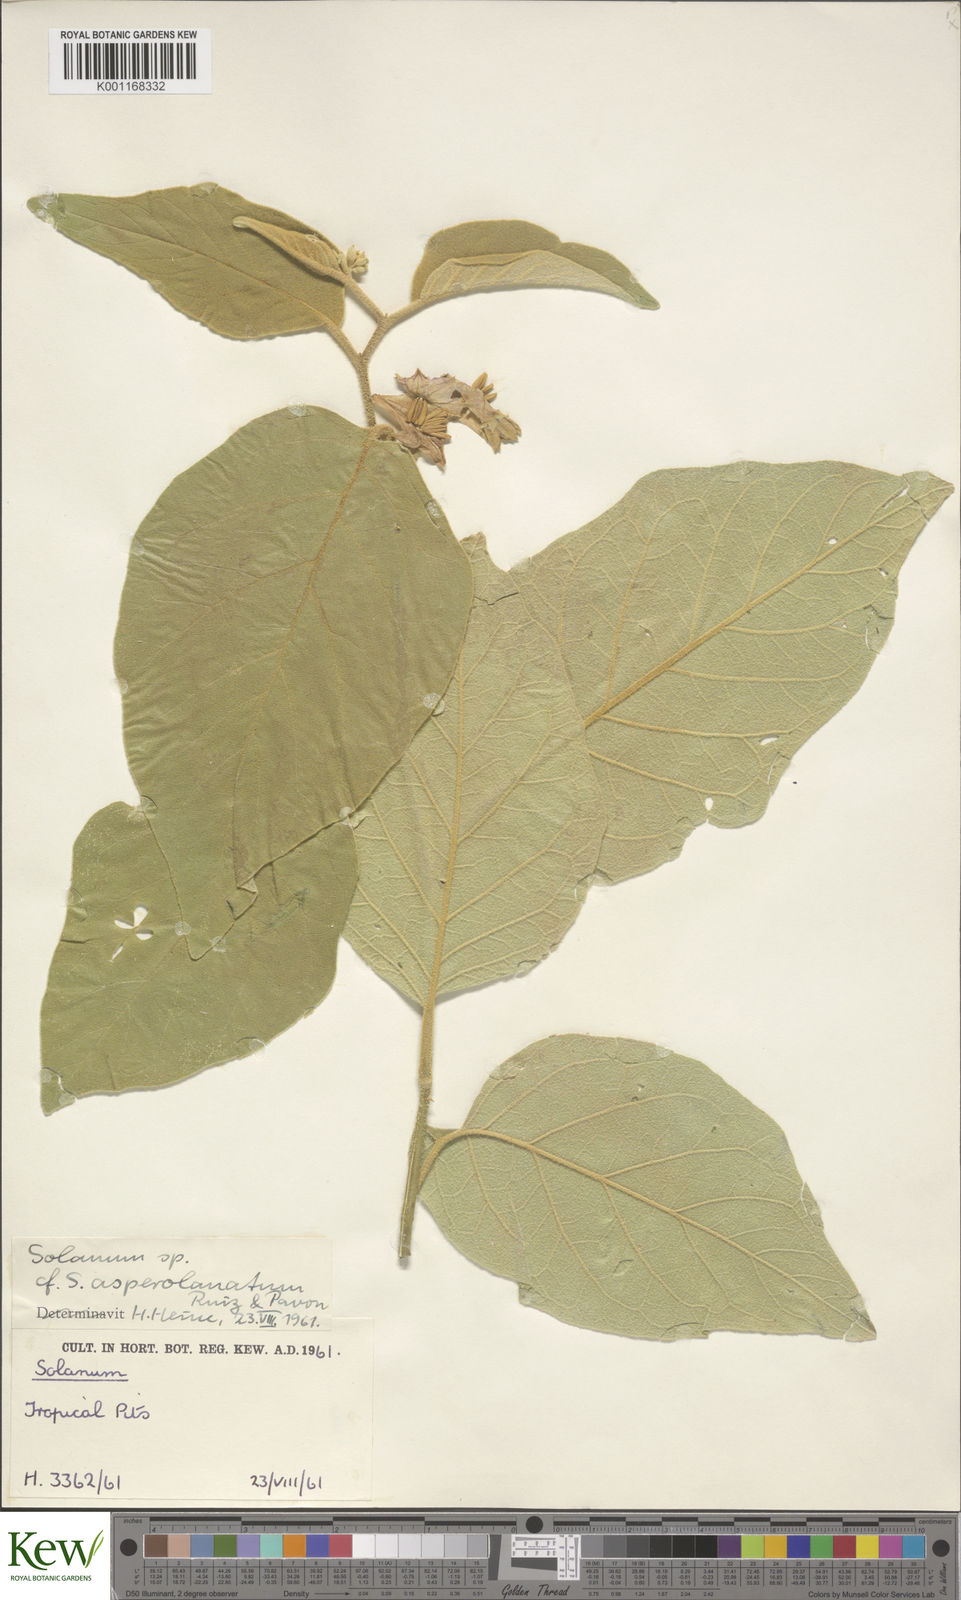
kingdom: Plantae
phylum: Tracheophyta
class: Magnoliopsida
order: Solanales
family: Solanaceae
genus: Solanum
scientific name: Solanum asperolanatum
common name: Devil's-fig
